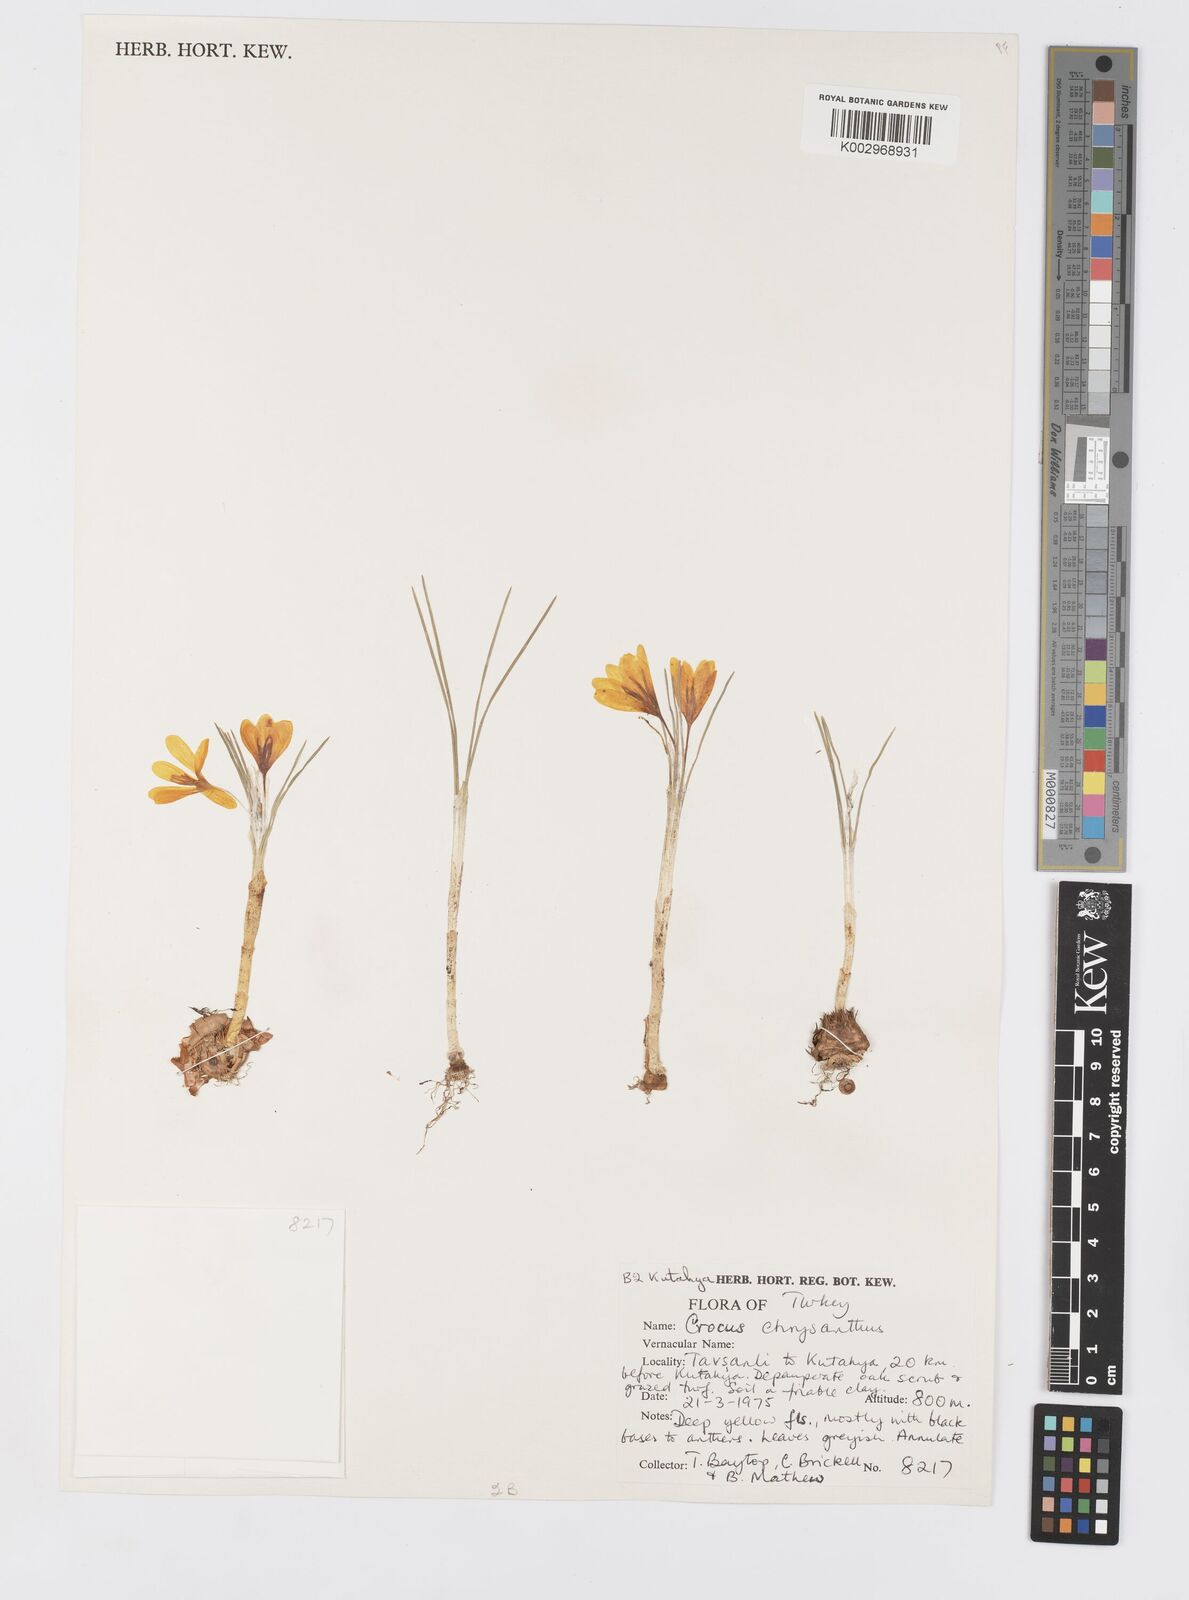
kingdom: Plantae
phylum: Tracheophyta
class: Liliopsida
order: Asparagales
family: Iridaceae
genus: Crocus
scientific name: Crocus chrysanthus
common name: Golden crocus
